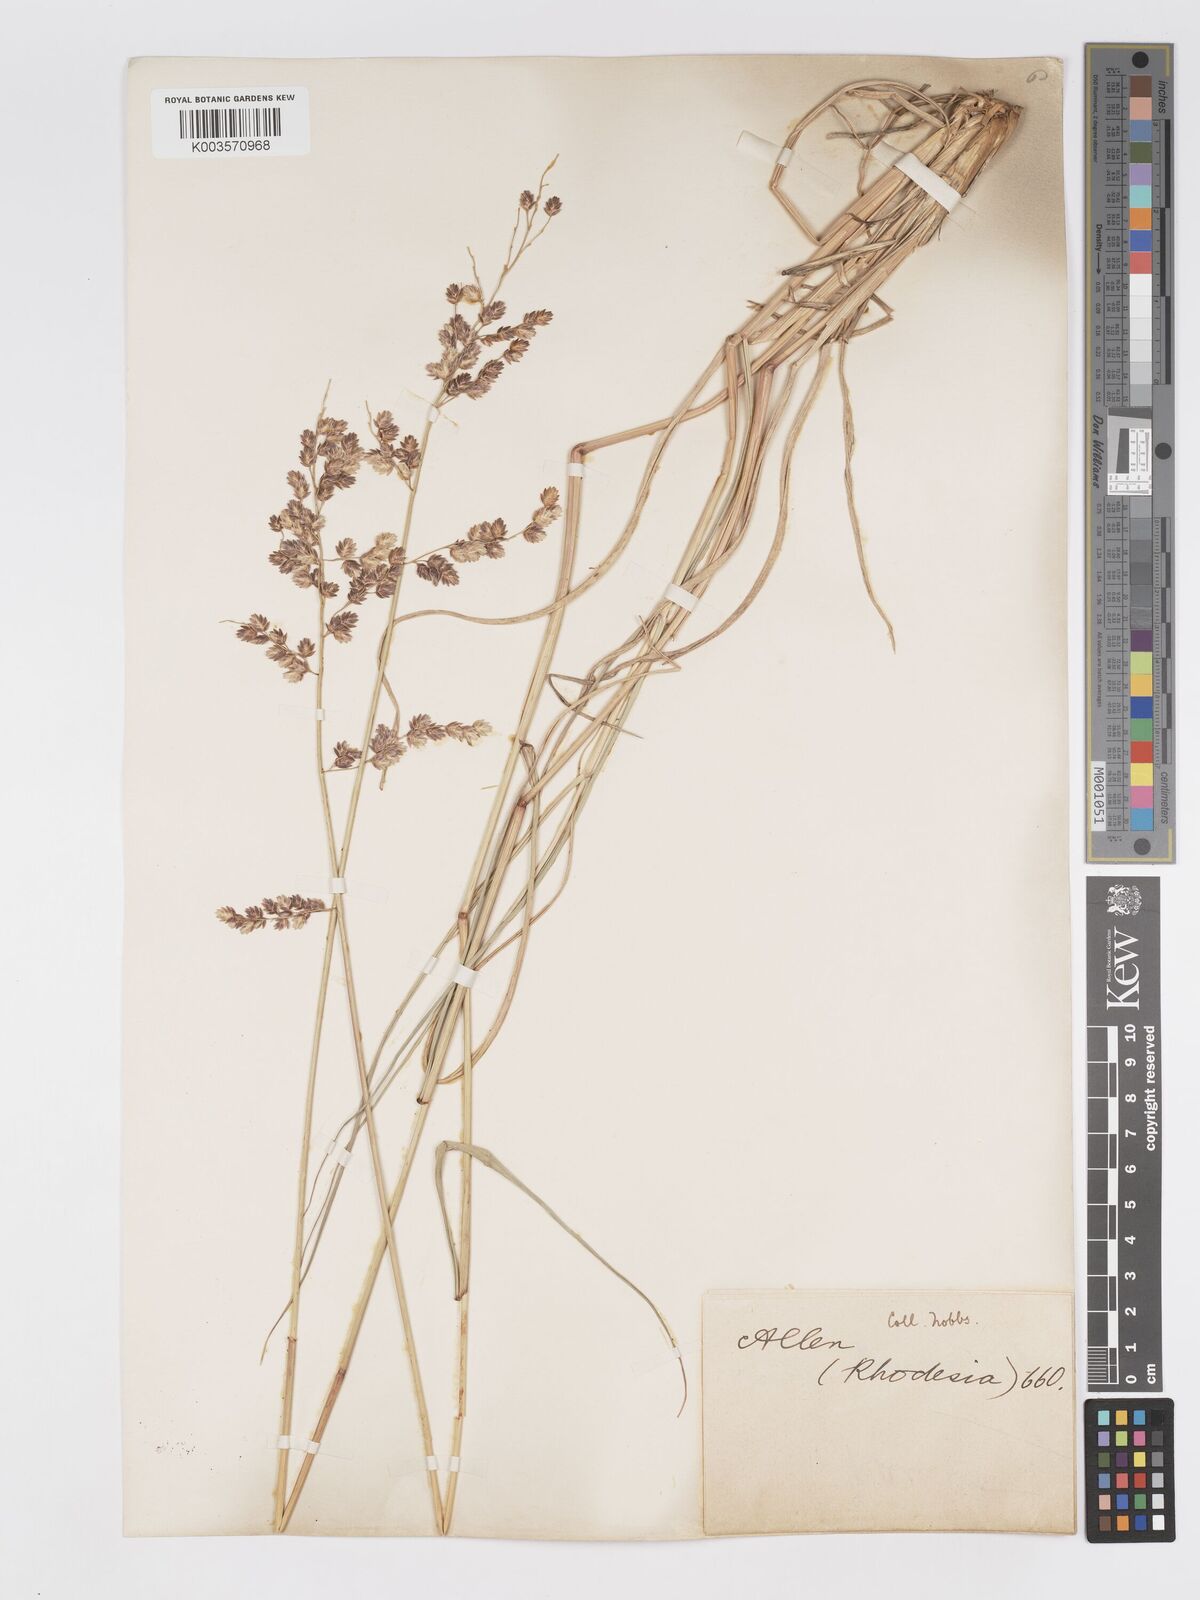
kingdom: Plantae
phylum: Tracheophyta
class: Liliopsida
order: Poales
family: Poaceae
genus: Eragrostis
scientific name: Eragrostis superba
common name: Wilman lovegrass
